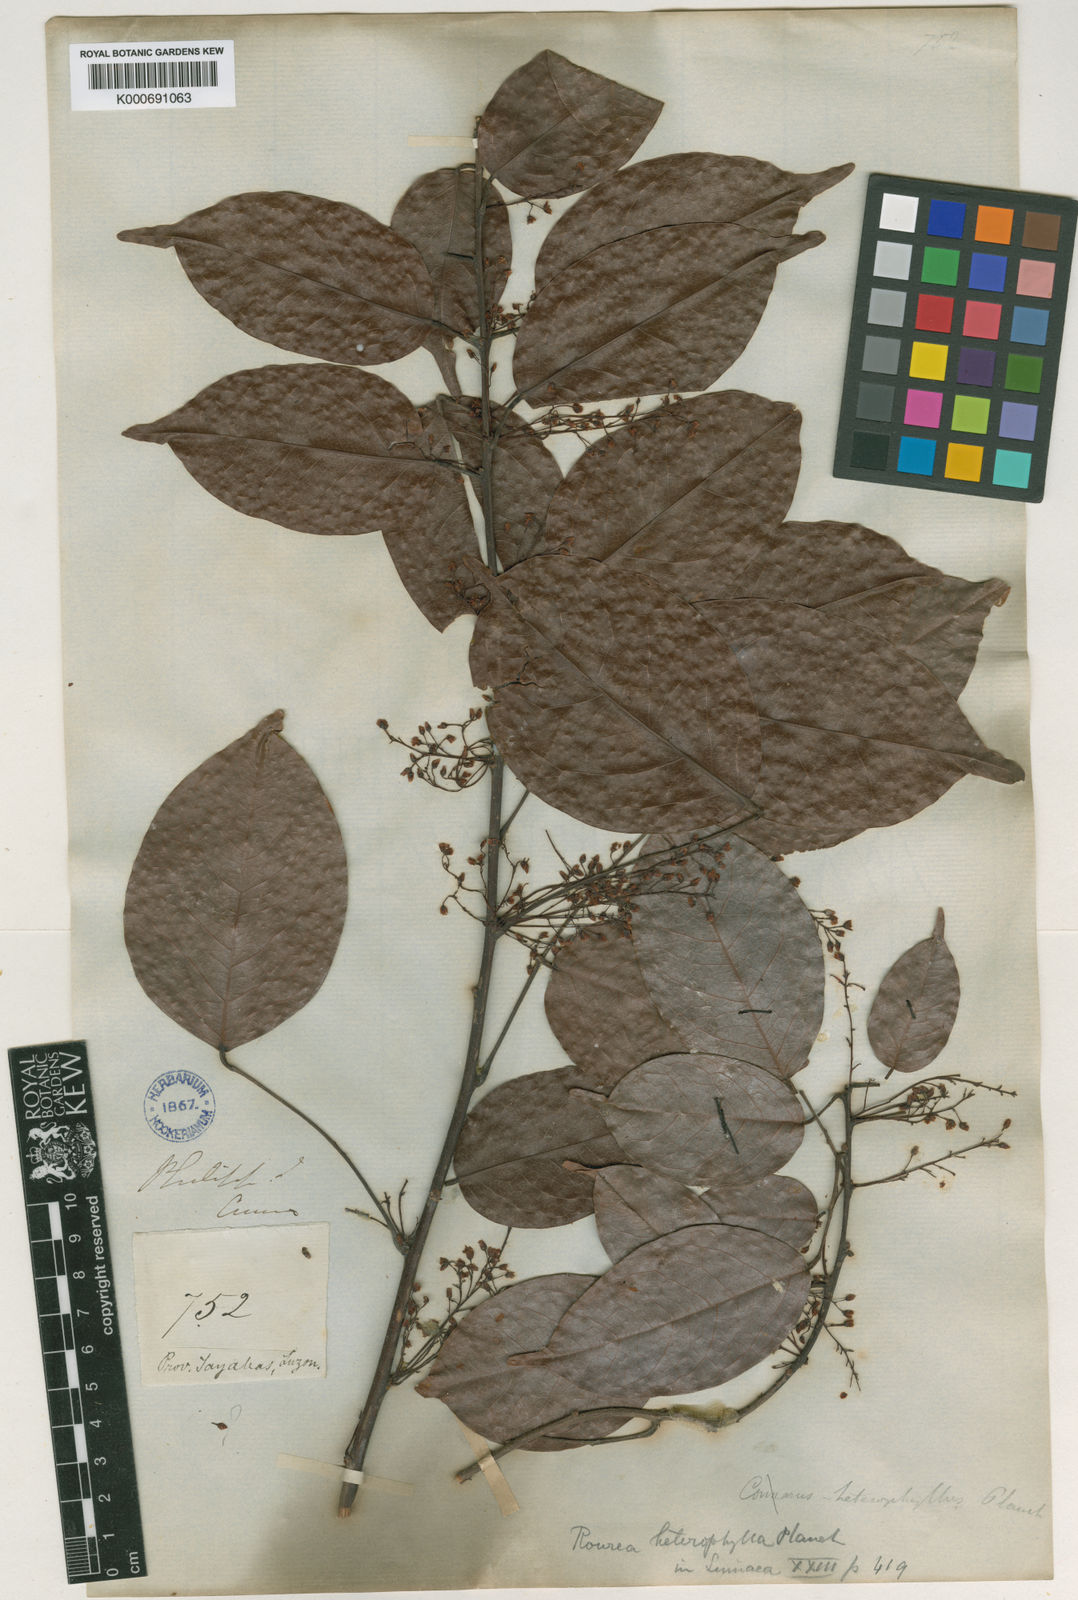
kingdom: Plantae
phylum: Tracheophyta
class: Magnoliopsida
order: Oxalidales
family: Connaraceae
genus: Rourea
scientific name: Rourea
